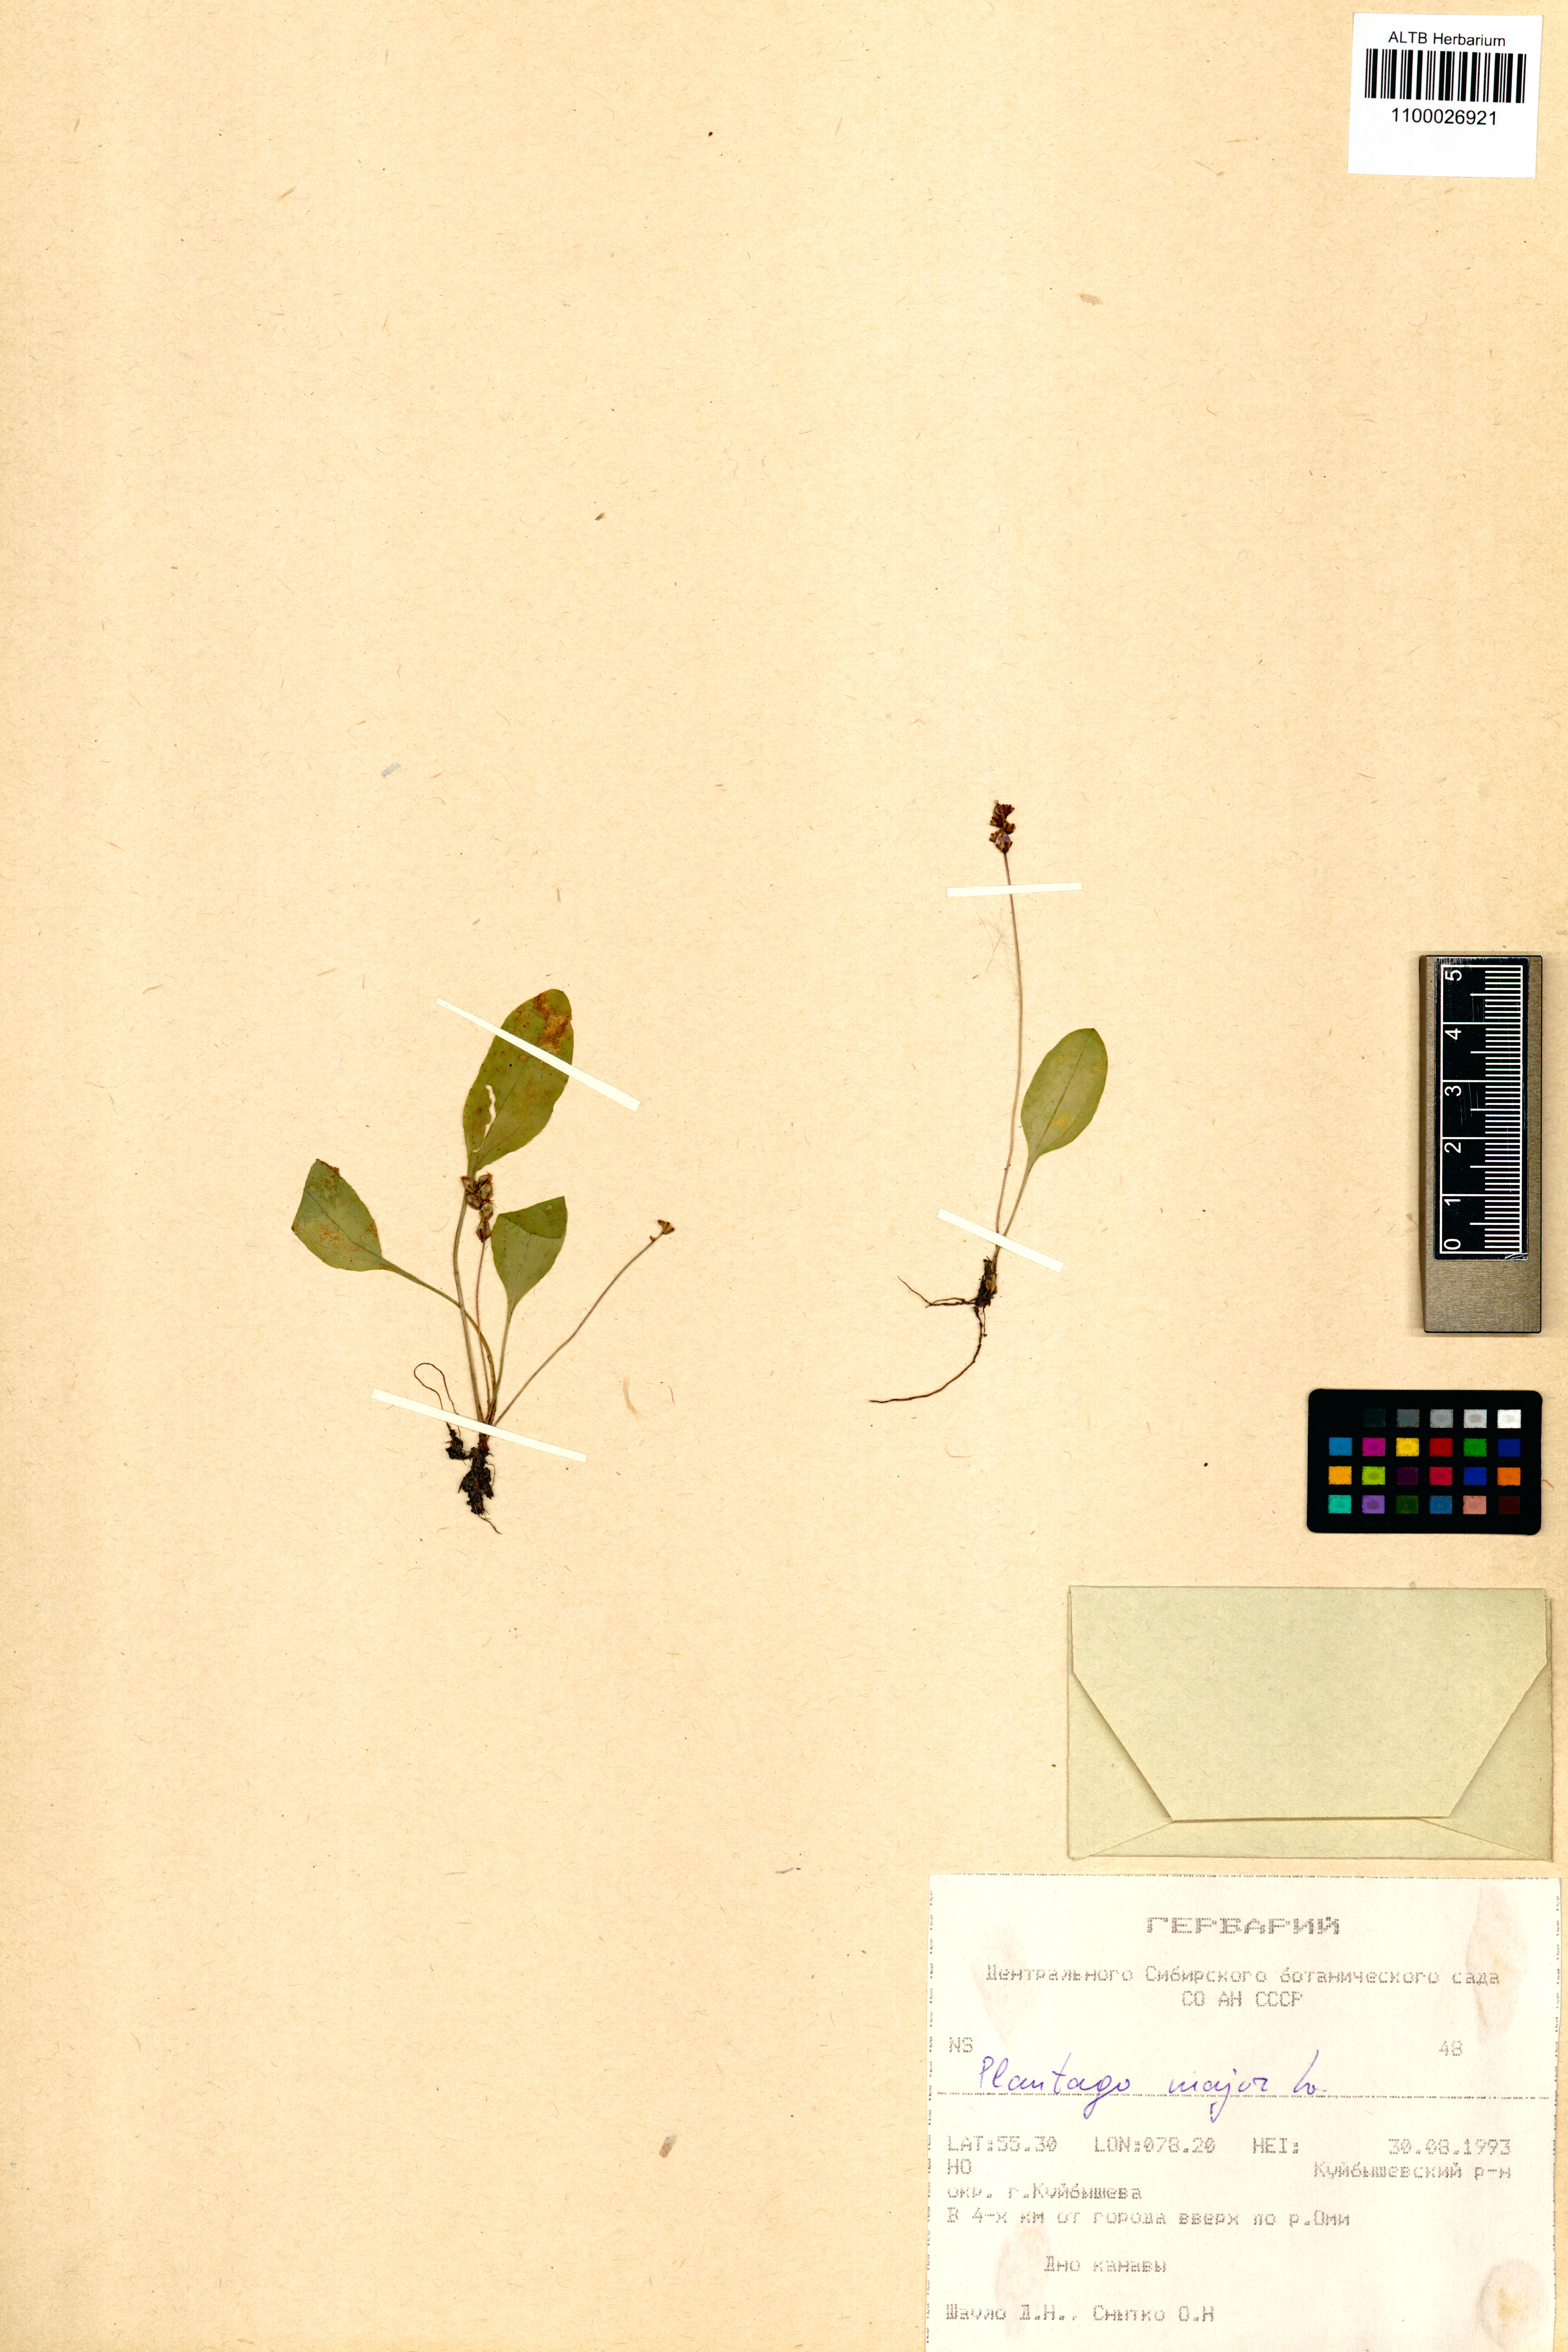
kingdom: Plantae
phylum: Tracheophyta
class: Magnoliopsida
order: Lamiales
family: Plantaginaceae
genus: Plantago
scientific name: Plantago major
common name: Common plantain
